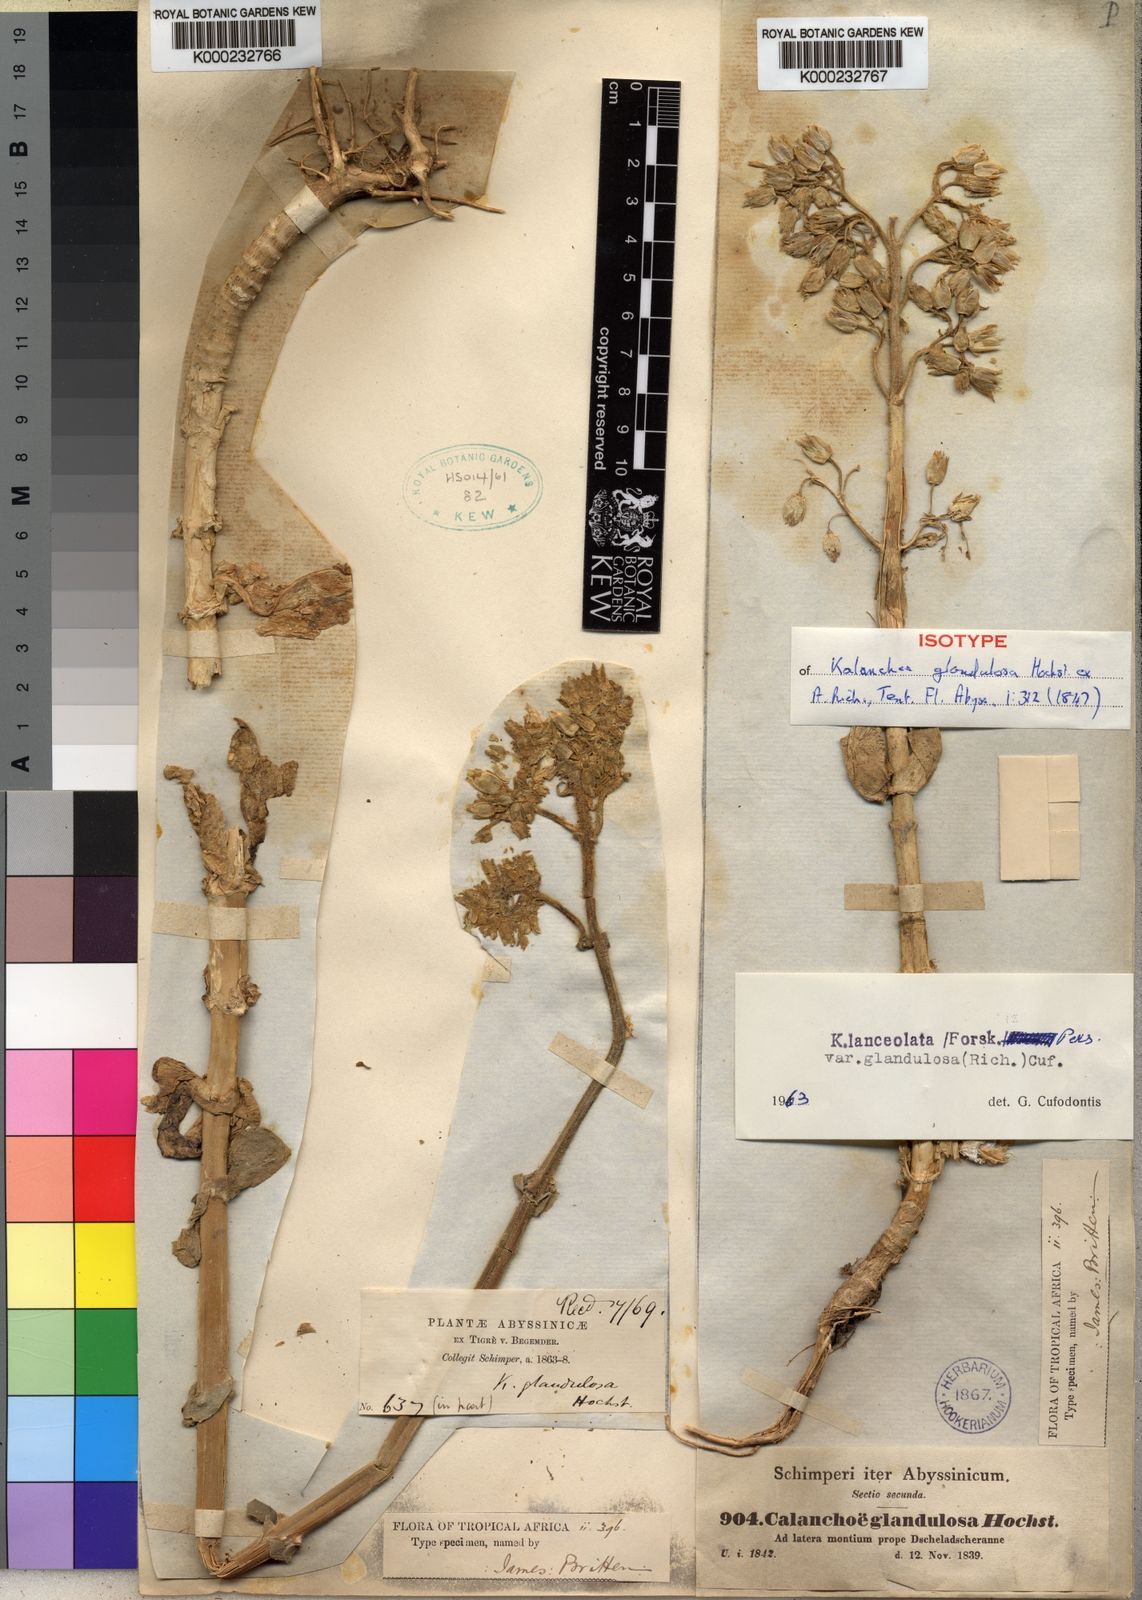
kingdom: Plantae
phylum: Tracheophyta
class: Magnoliopsida
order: Saxifragales
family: Crassulaceae
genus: Kalanchoe
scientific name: Kalanchoe lanceolata
